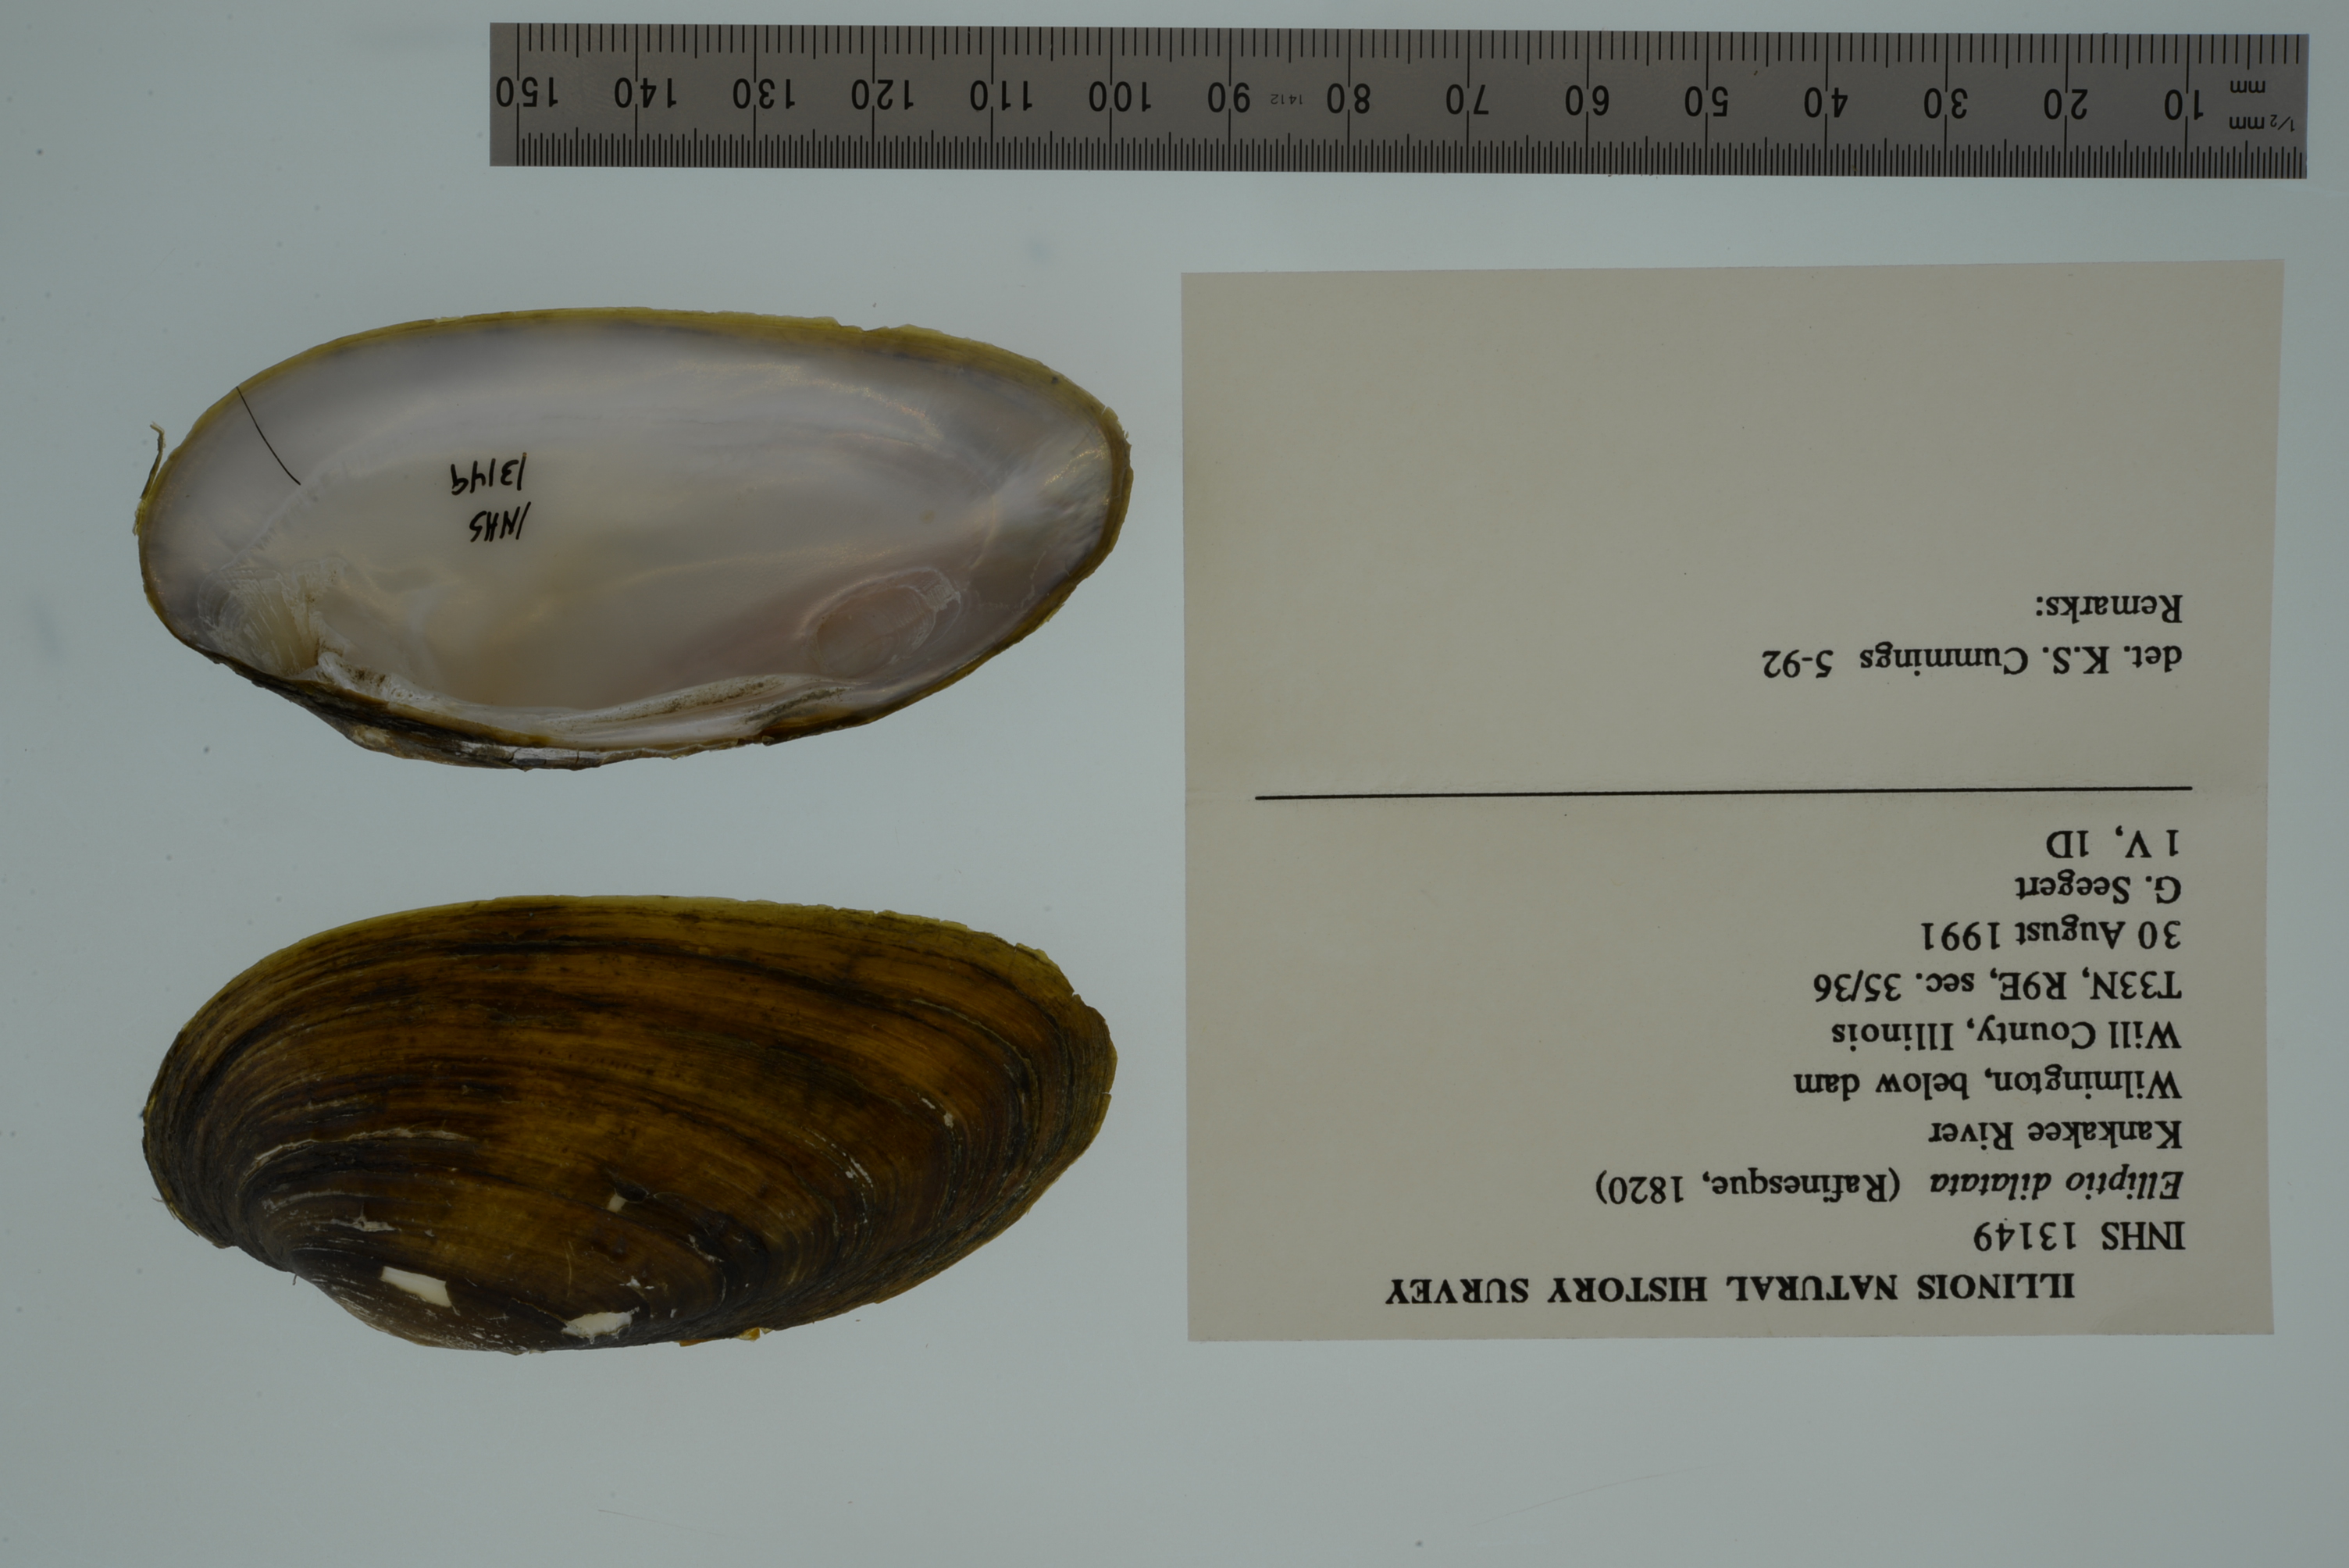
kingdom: Animalia
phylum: Mollusca
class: Bivalvia
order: Unionida
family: Unionidae
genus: Eurynia
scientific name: Eurynia dilatata
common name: Spike
